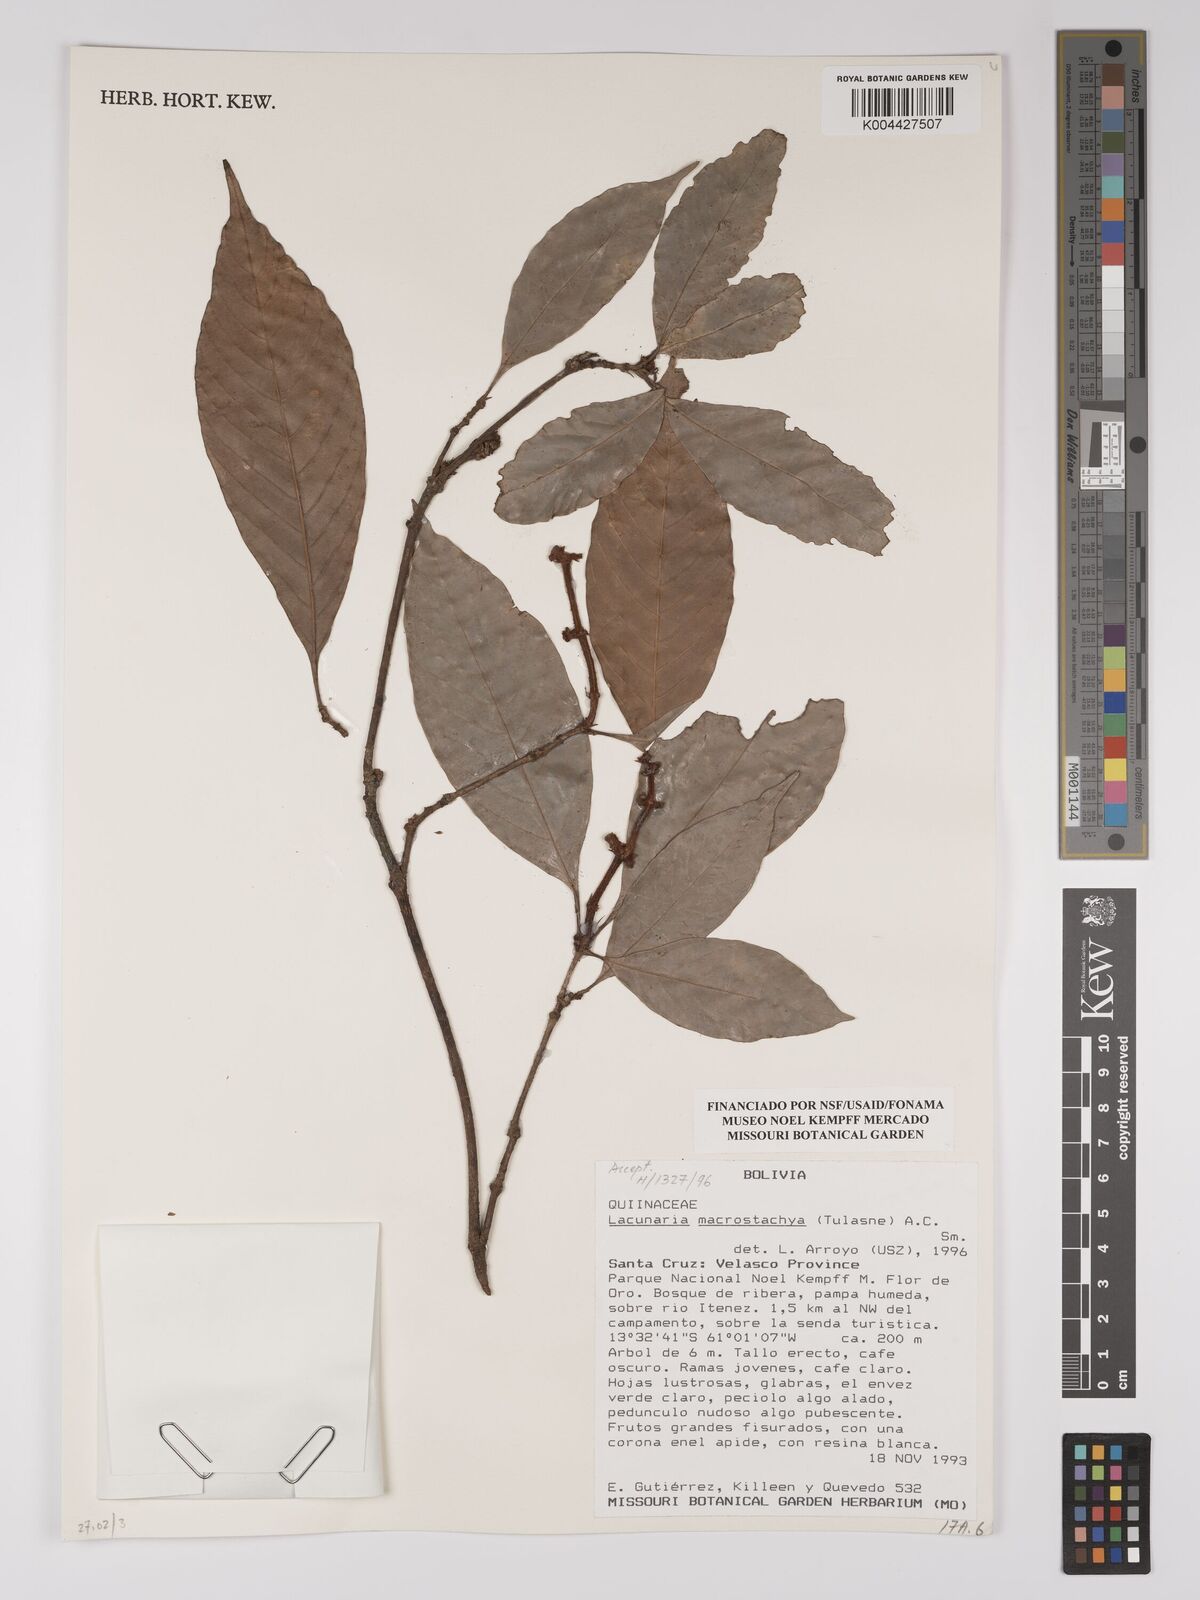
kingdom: Plantae
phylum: Tracheophyta
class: Magnoliopsida
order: Malpighiales
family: Quiinaceae
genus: Lacunaria
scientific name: Lacunaria macrostachya
